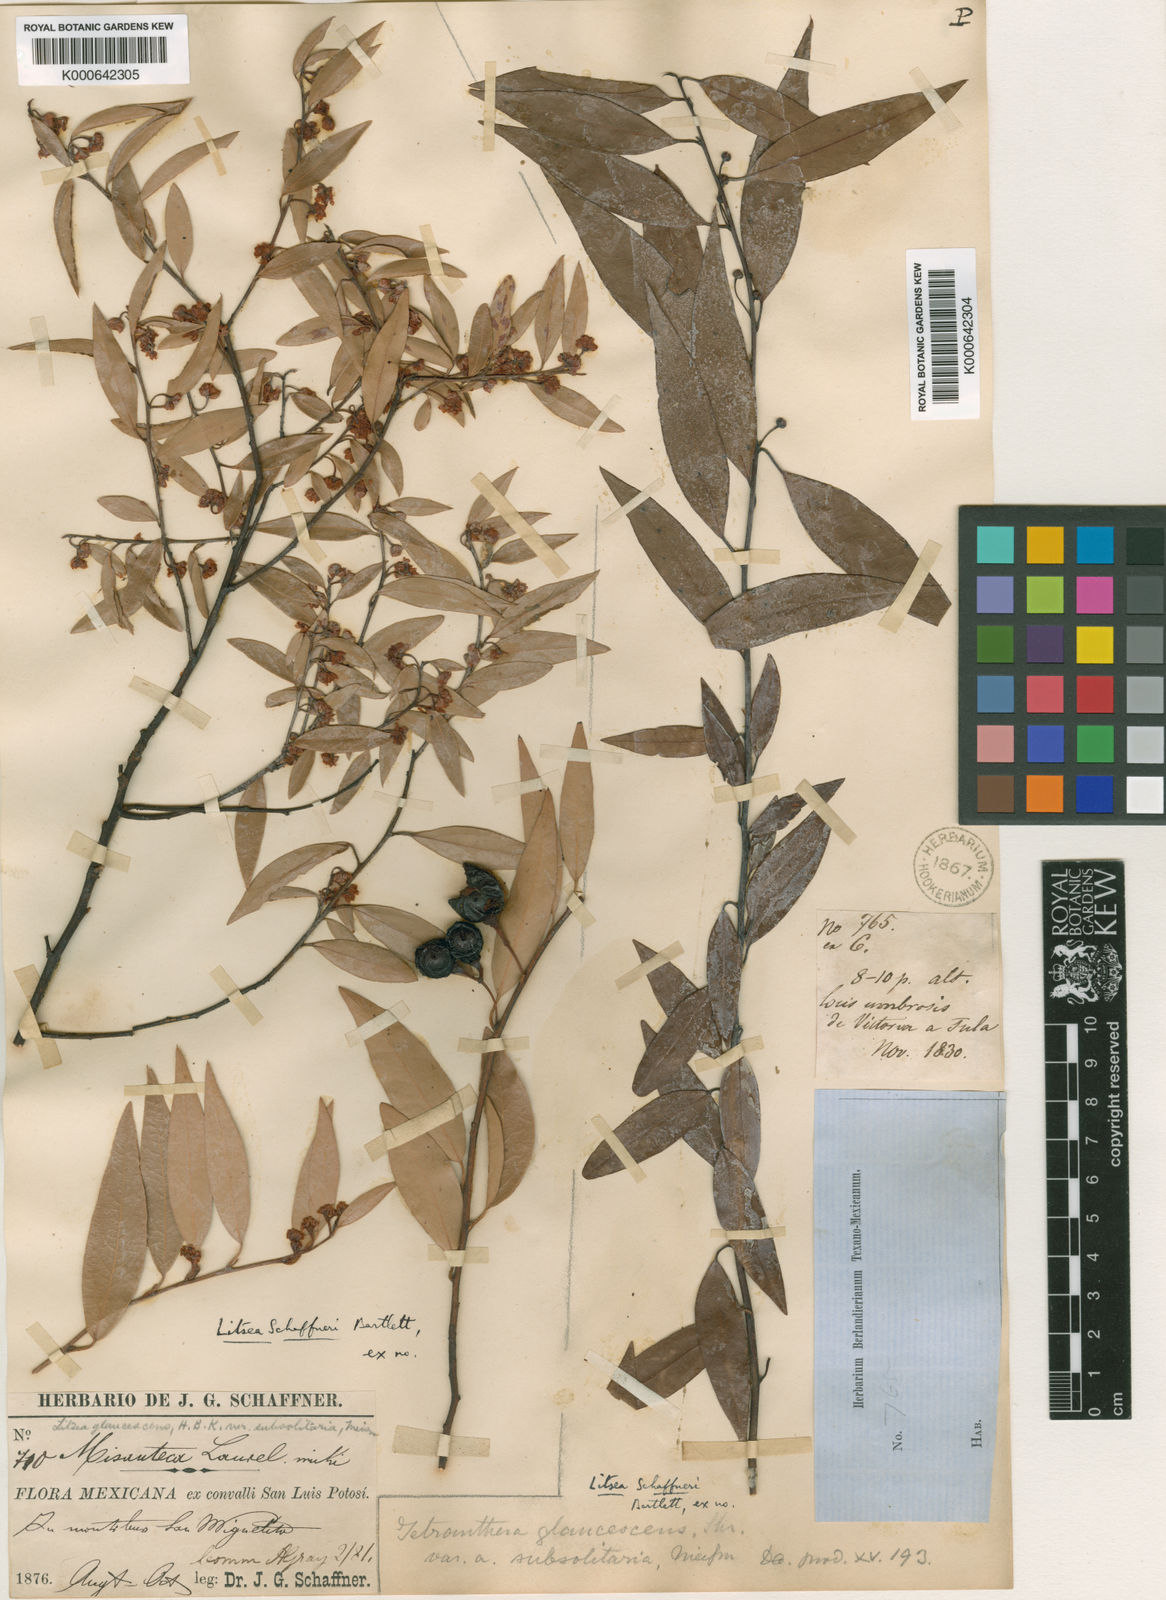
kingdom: Plantae
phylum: Tracheophyta
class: Magnoliopsida
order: Laurales
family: Lauraceae
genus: Licaria
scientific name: Licaria triandra
